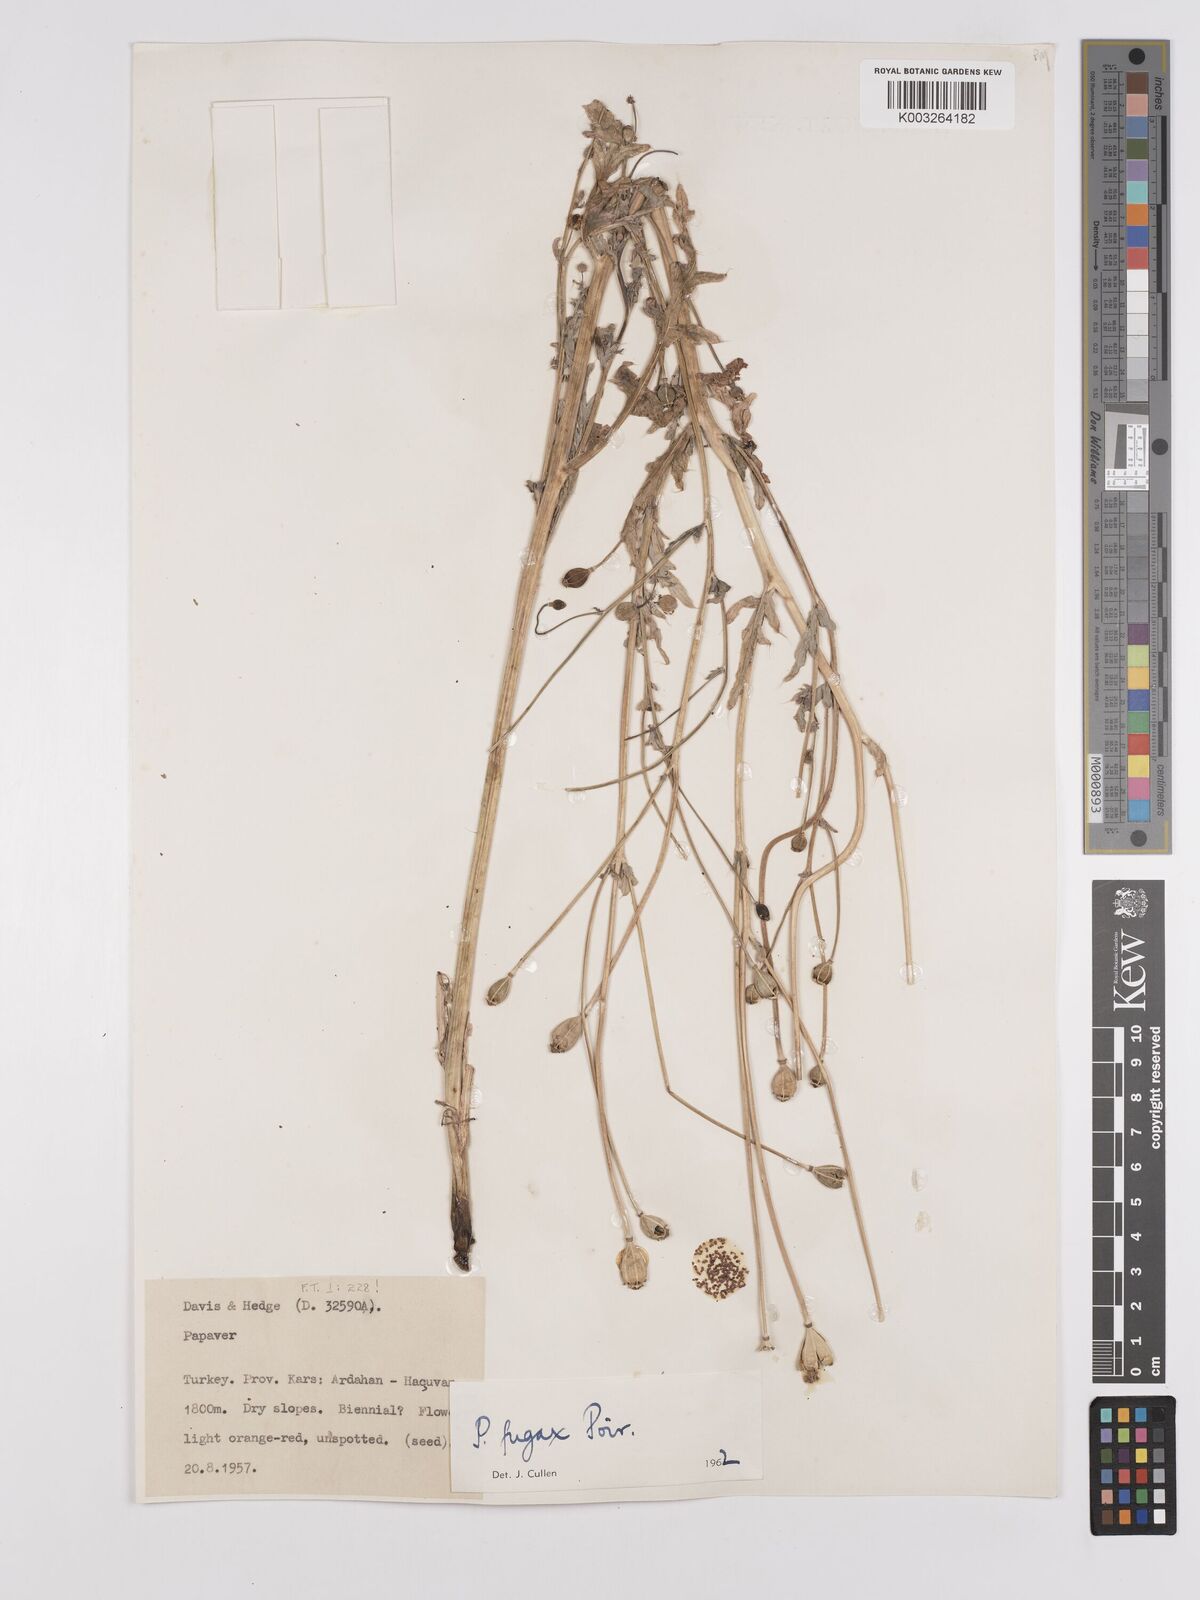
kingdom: Plantae
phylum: Tracheophyta
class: Magnoliopsida
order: Ranunculales
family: Papaveraceae
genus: Papaver
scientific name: Papaver armeniacum
